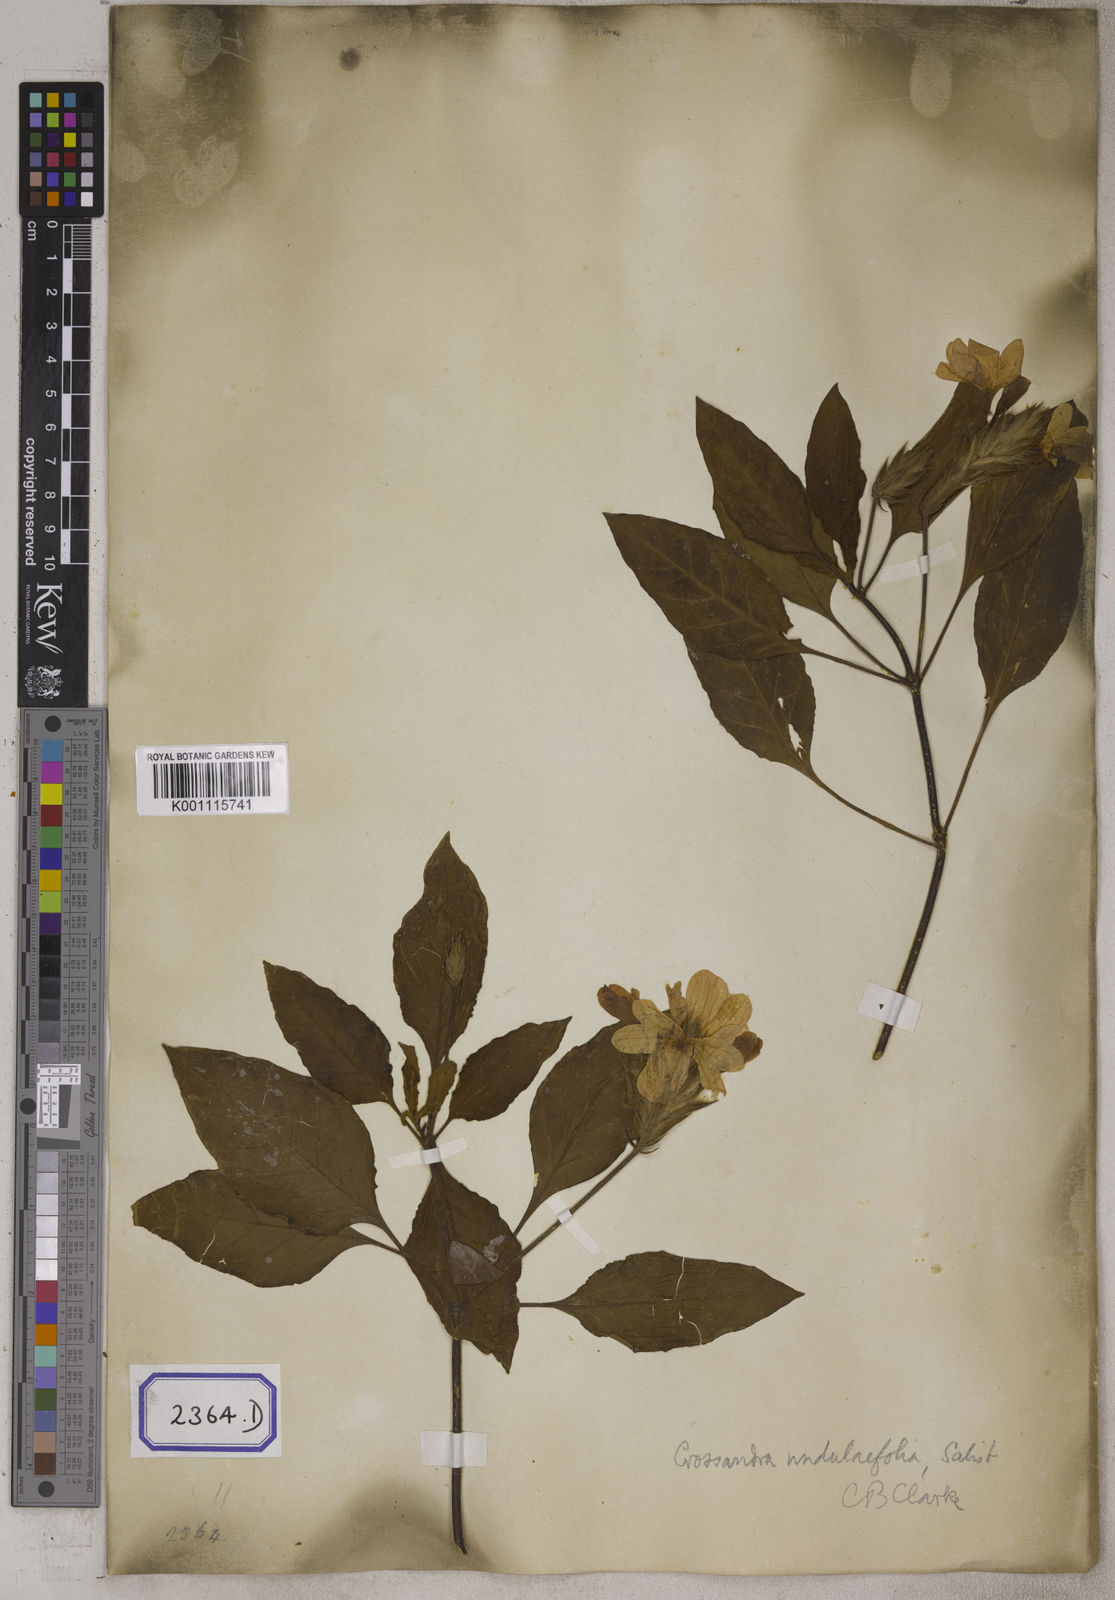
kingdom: Plantae
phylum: Tracheophyta
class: Magnoliopsida
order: Lamiales
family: Acanthaceae
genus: Crossandra
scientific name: Crossandra infundibuliformis
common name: Firecracker-flower
